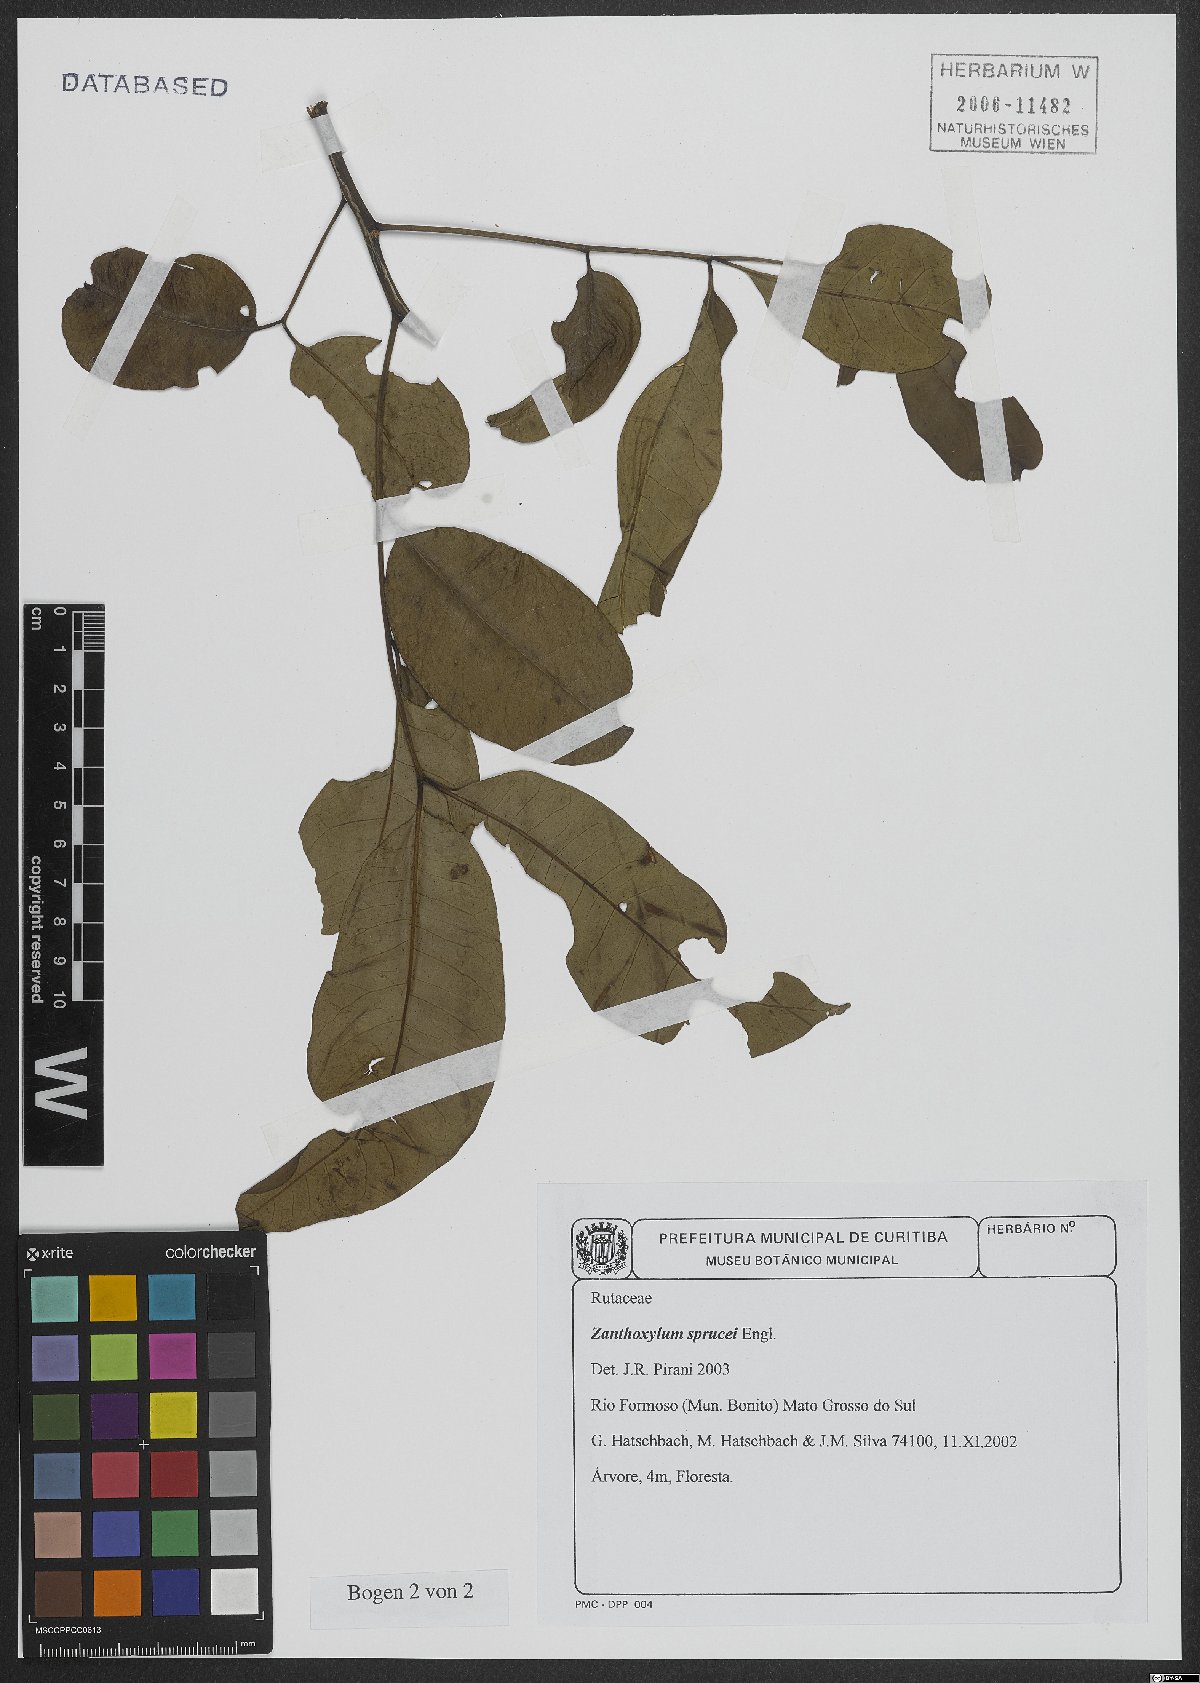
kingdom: Plantae
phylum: Tracheophyta
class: Magnoliopsida
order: Sapindales
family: Rutaceae
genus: Zanthoxylum
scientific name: Zanthoxylum sprucei
